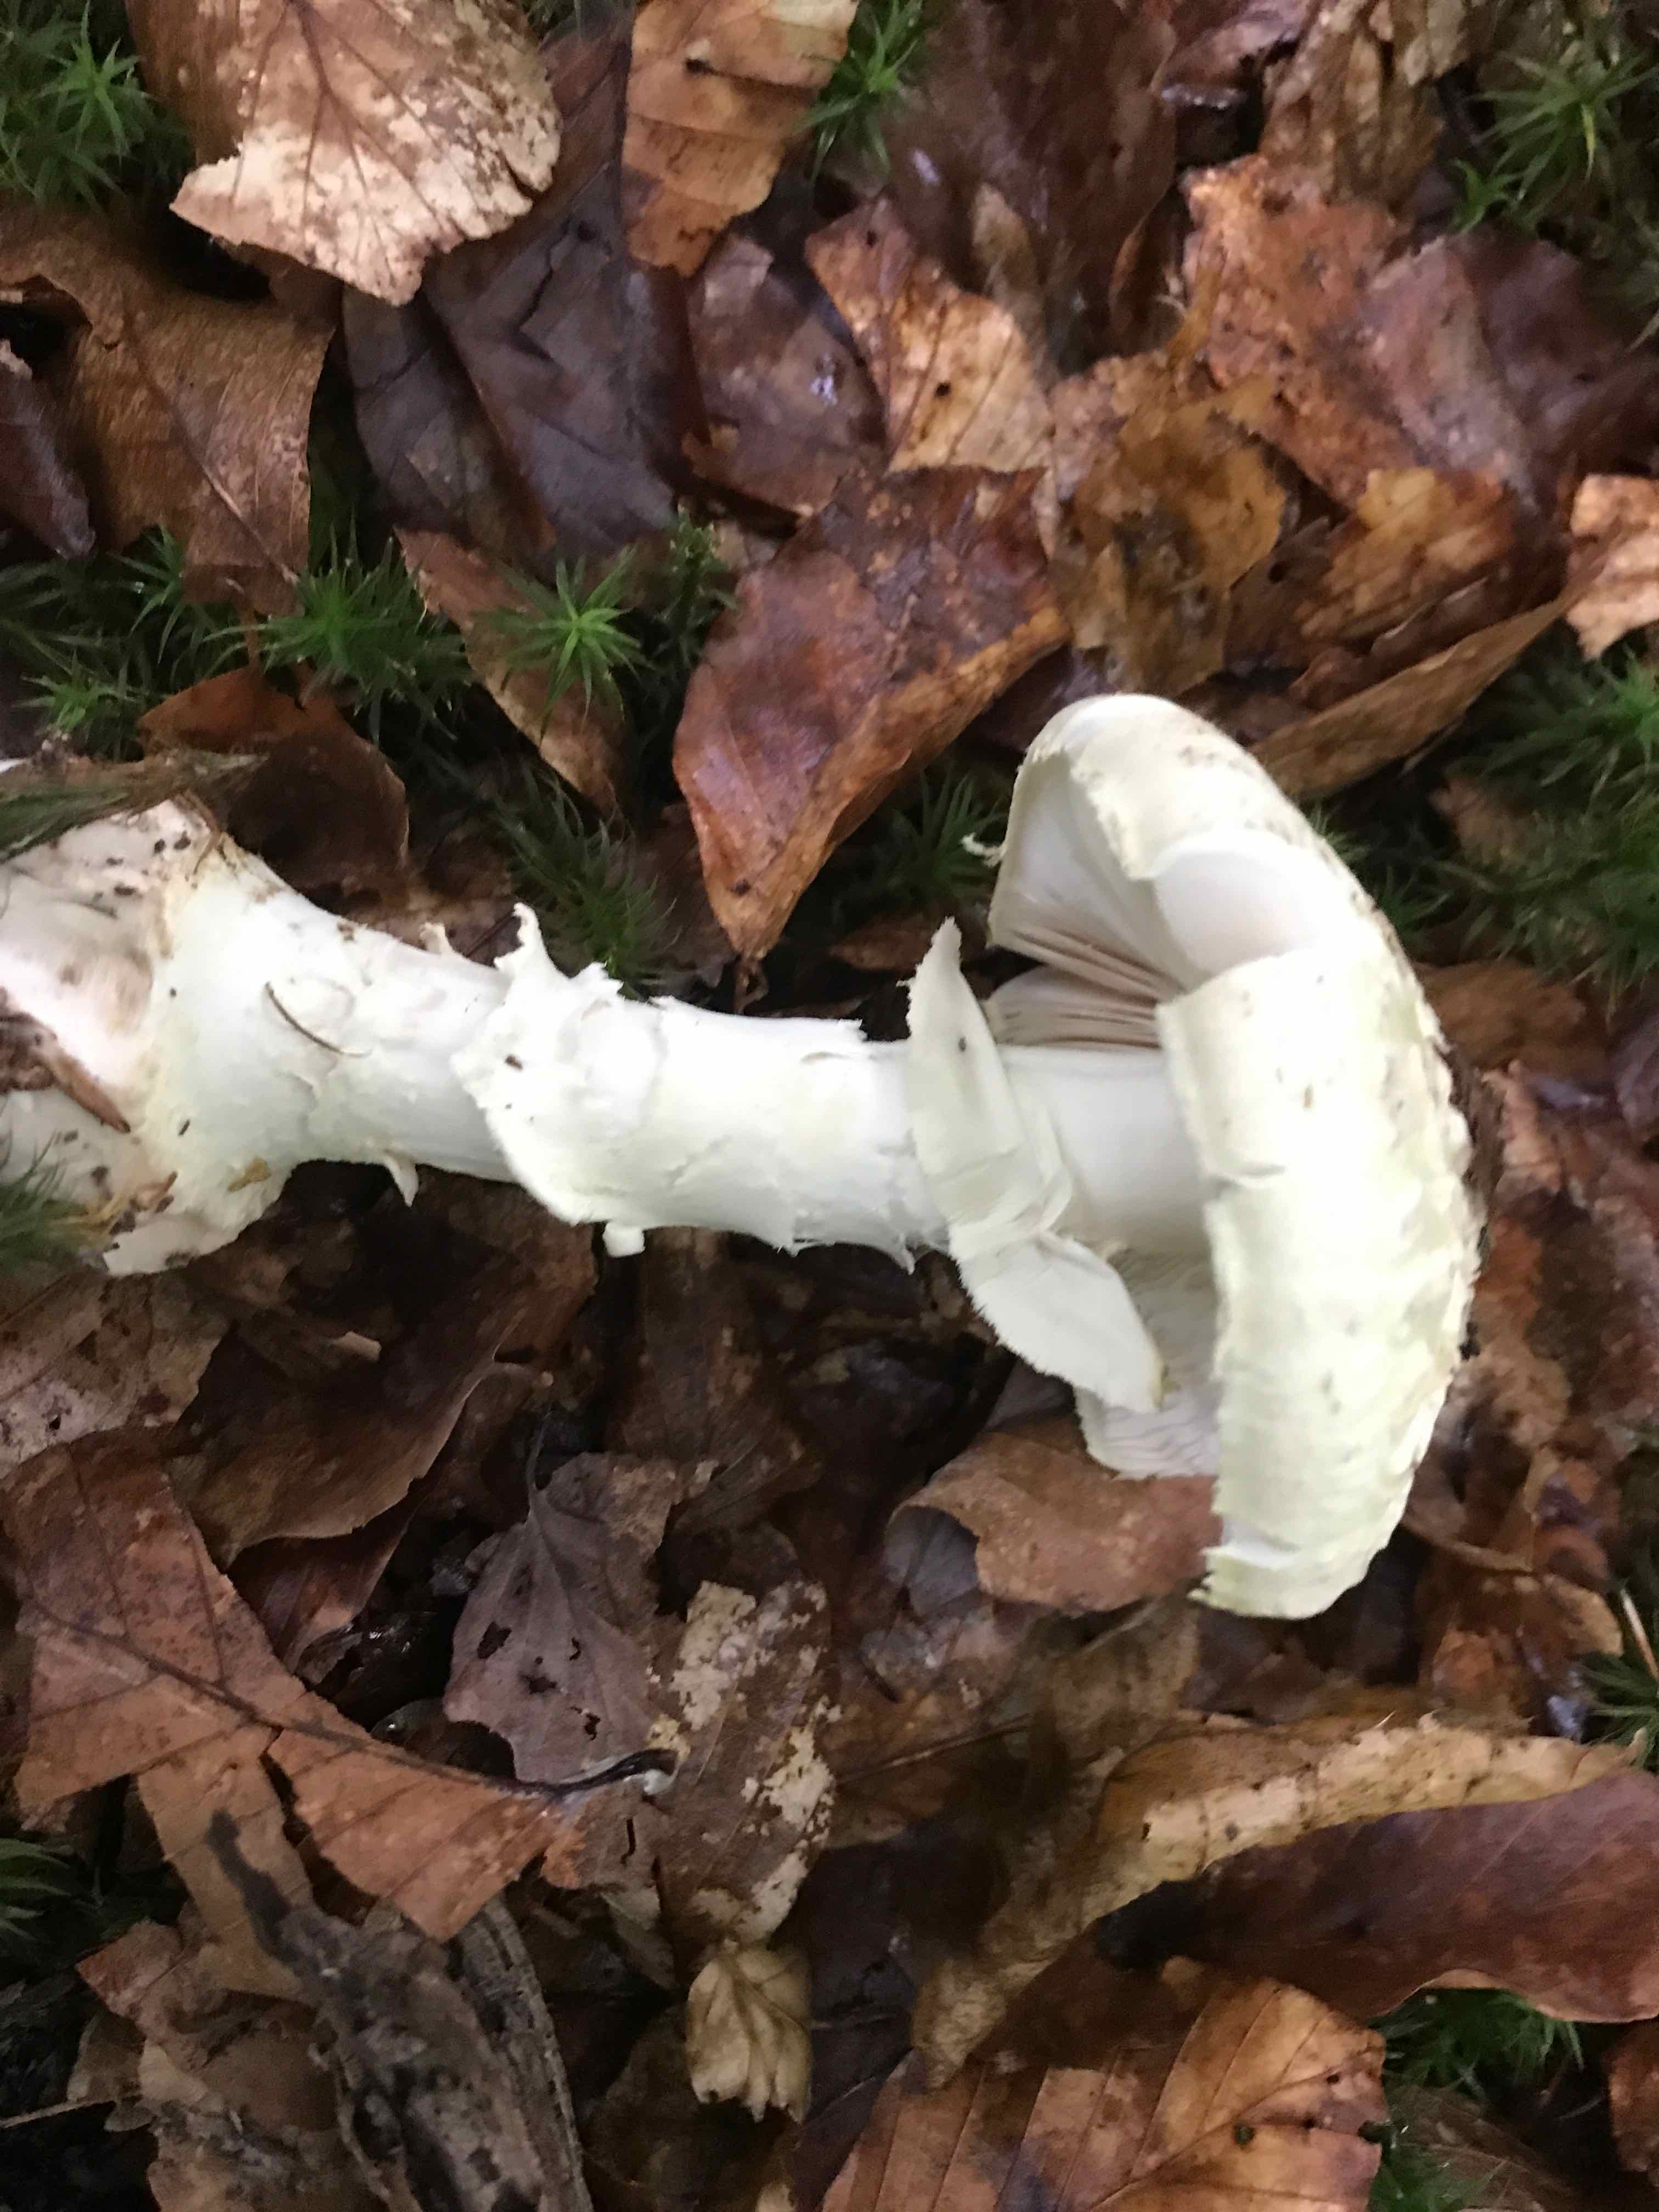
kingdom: Fungi
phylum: Basidiomycota
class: Agaricomycetes
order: Agaricales
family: Amanitaceae
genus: Amanita
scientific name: Amanita citrina
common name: kugleknoldet fluesvamp
